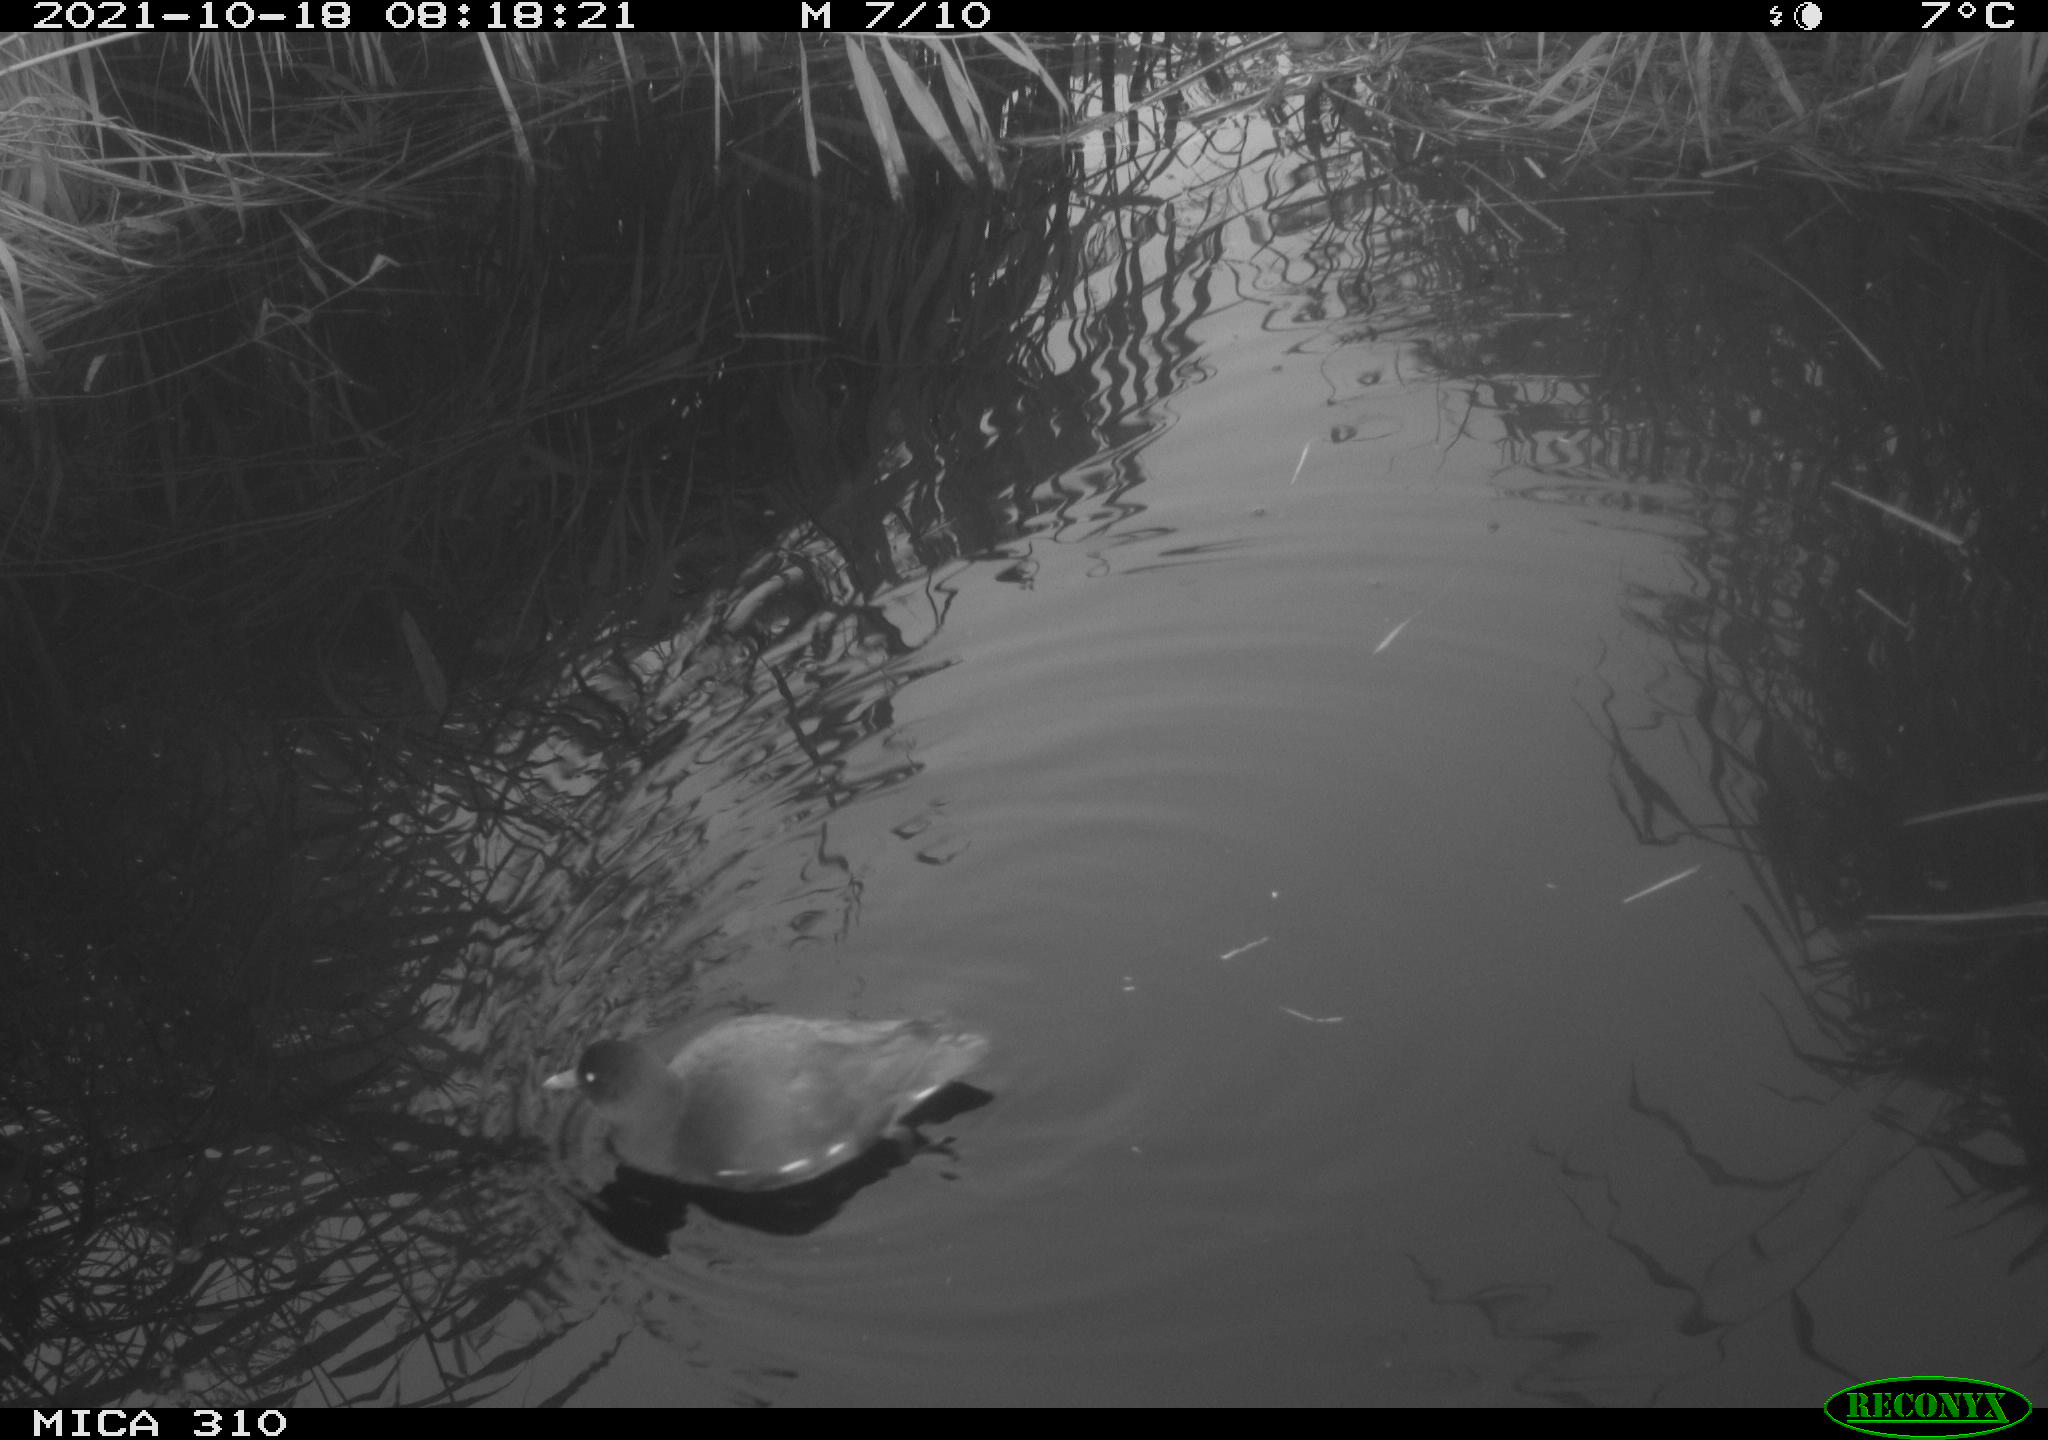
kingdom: Animalia
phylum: Chordata
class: Aves
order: Gruiformes
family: Rallidae
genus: Gallinula
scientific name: Gallinula chloropus
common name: Common moorhen
